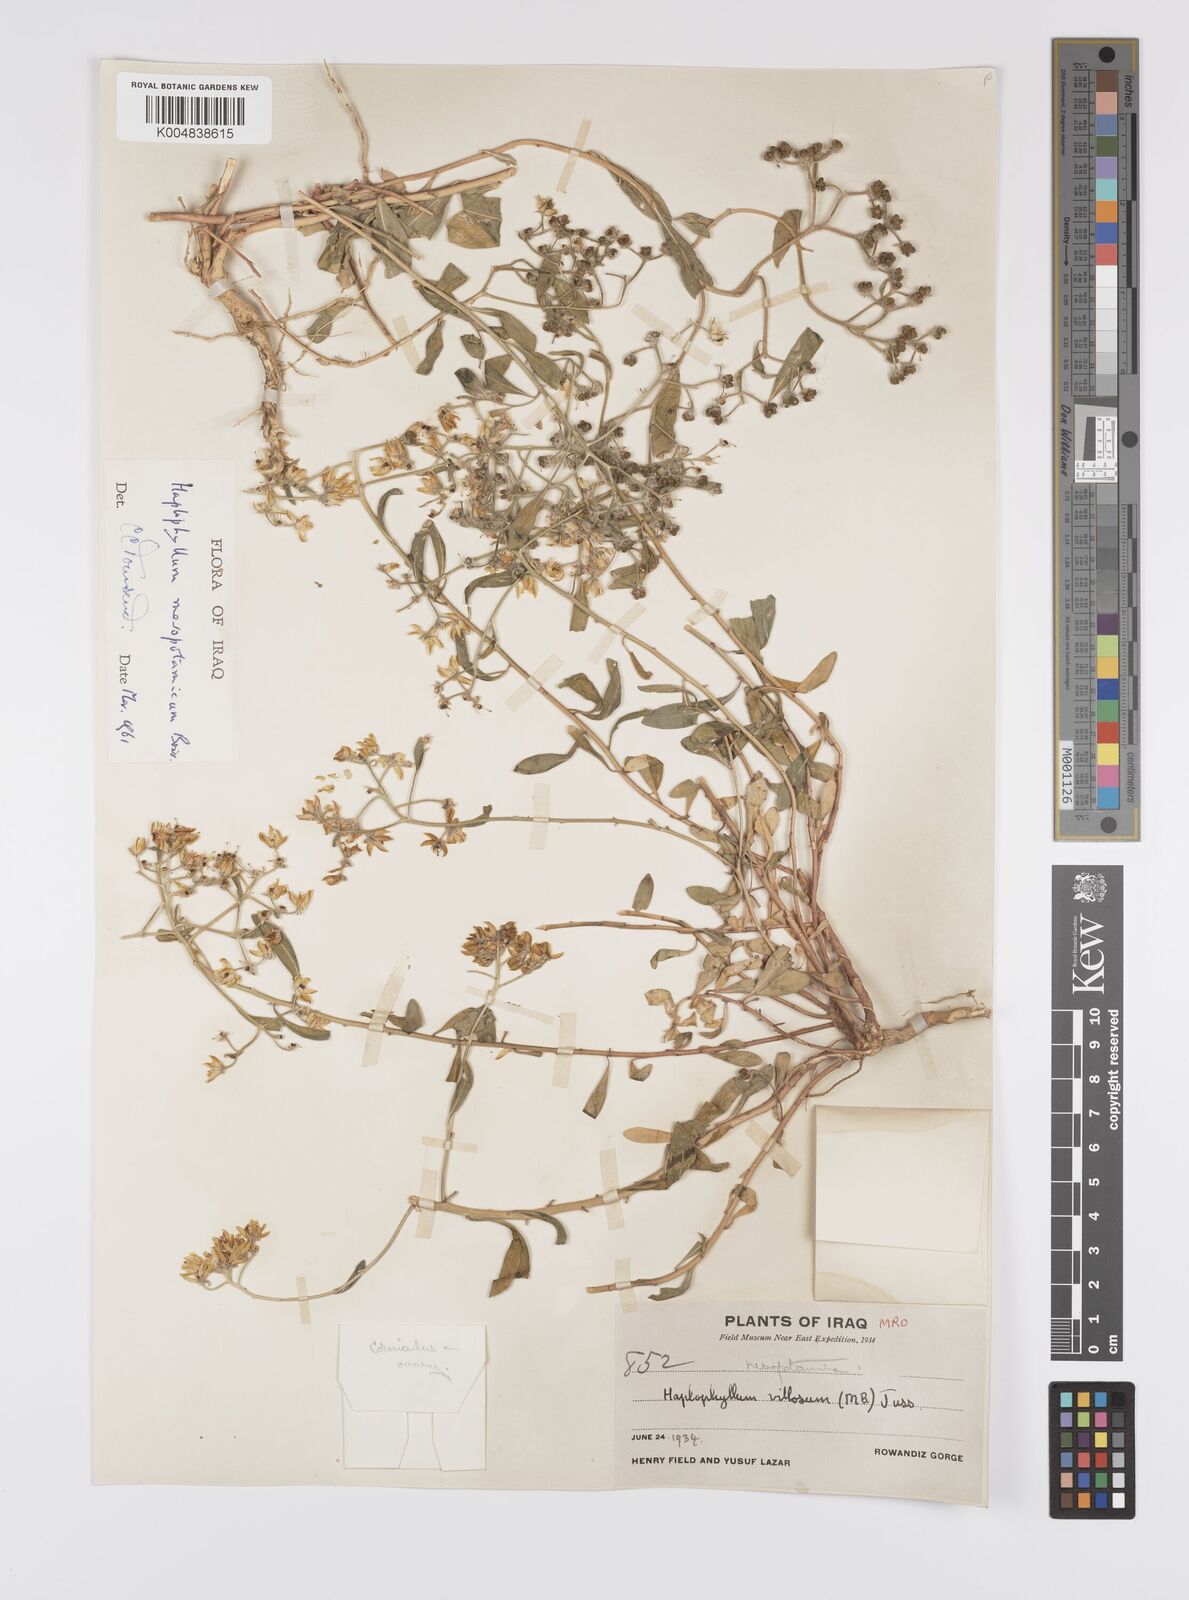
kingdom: Plantae
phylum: Tracheophyta
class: Magnoliopsida
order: Sapindales
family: Rutaceae
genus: Haplophyllum
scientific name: Haplophyllum buxbaumii
